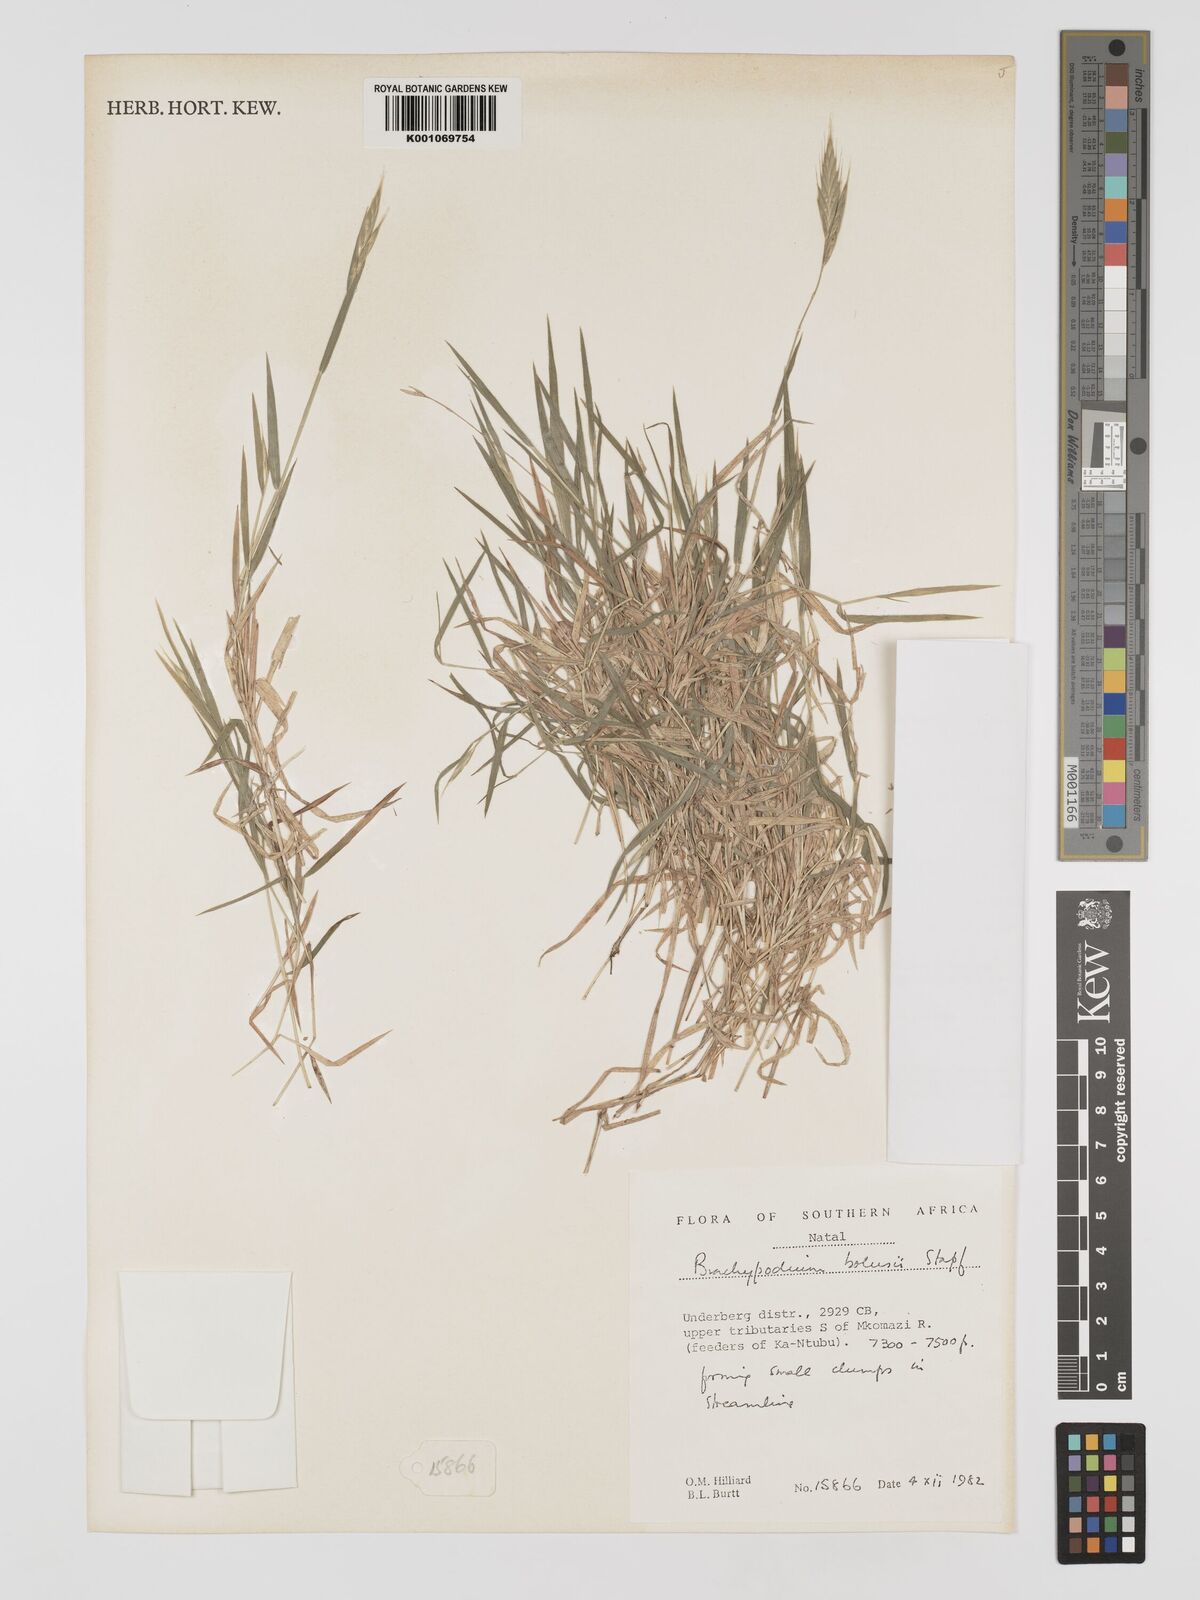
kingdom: Plantae
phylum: Tracheophyta
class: Liliopsida
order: Poales
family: Poaceae
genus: Brachypodium
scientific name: Brachypodium bolusii
